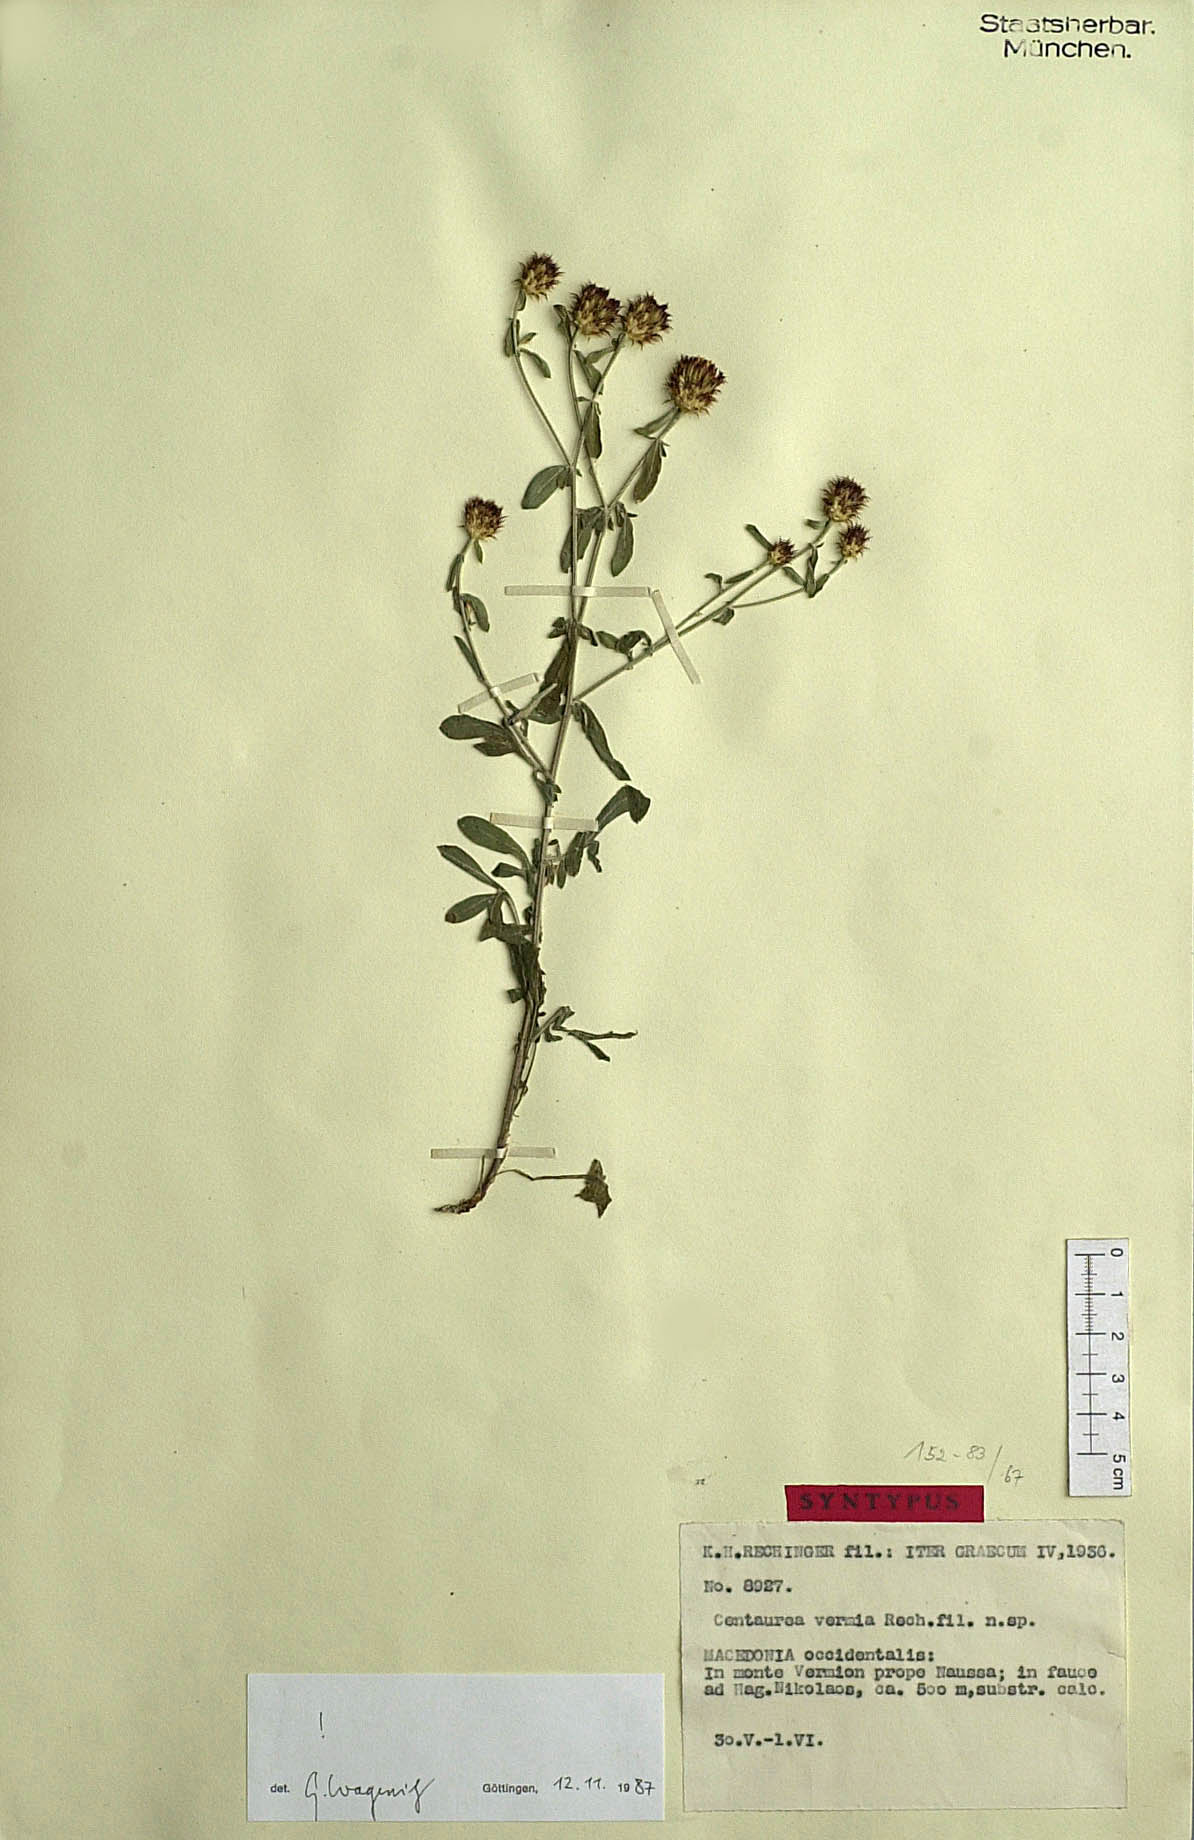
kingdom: Plantae
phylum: Tracheophyta
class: Magnoliopsida
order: Asterales
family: Asteraceae
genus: Centaurea
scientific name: Centaurea vermia
